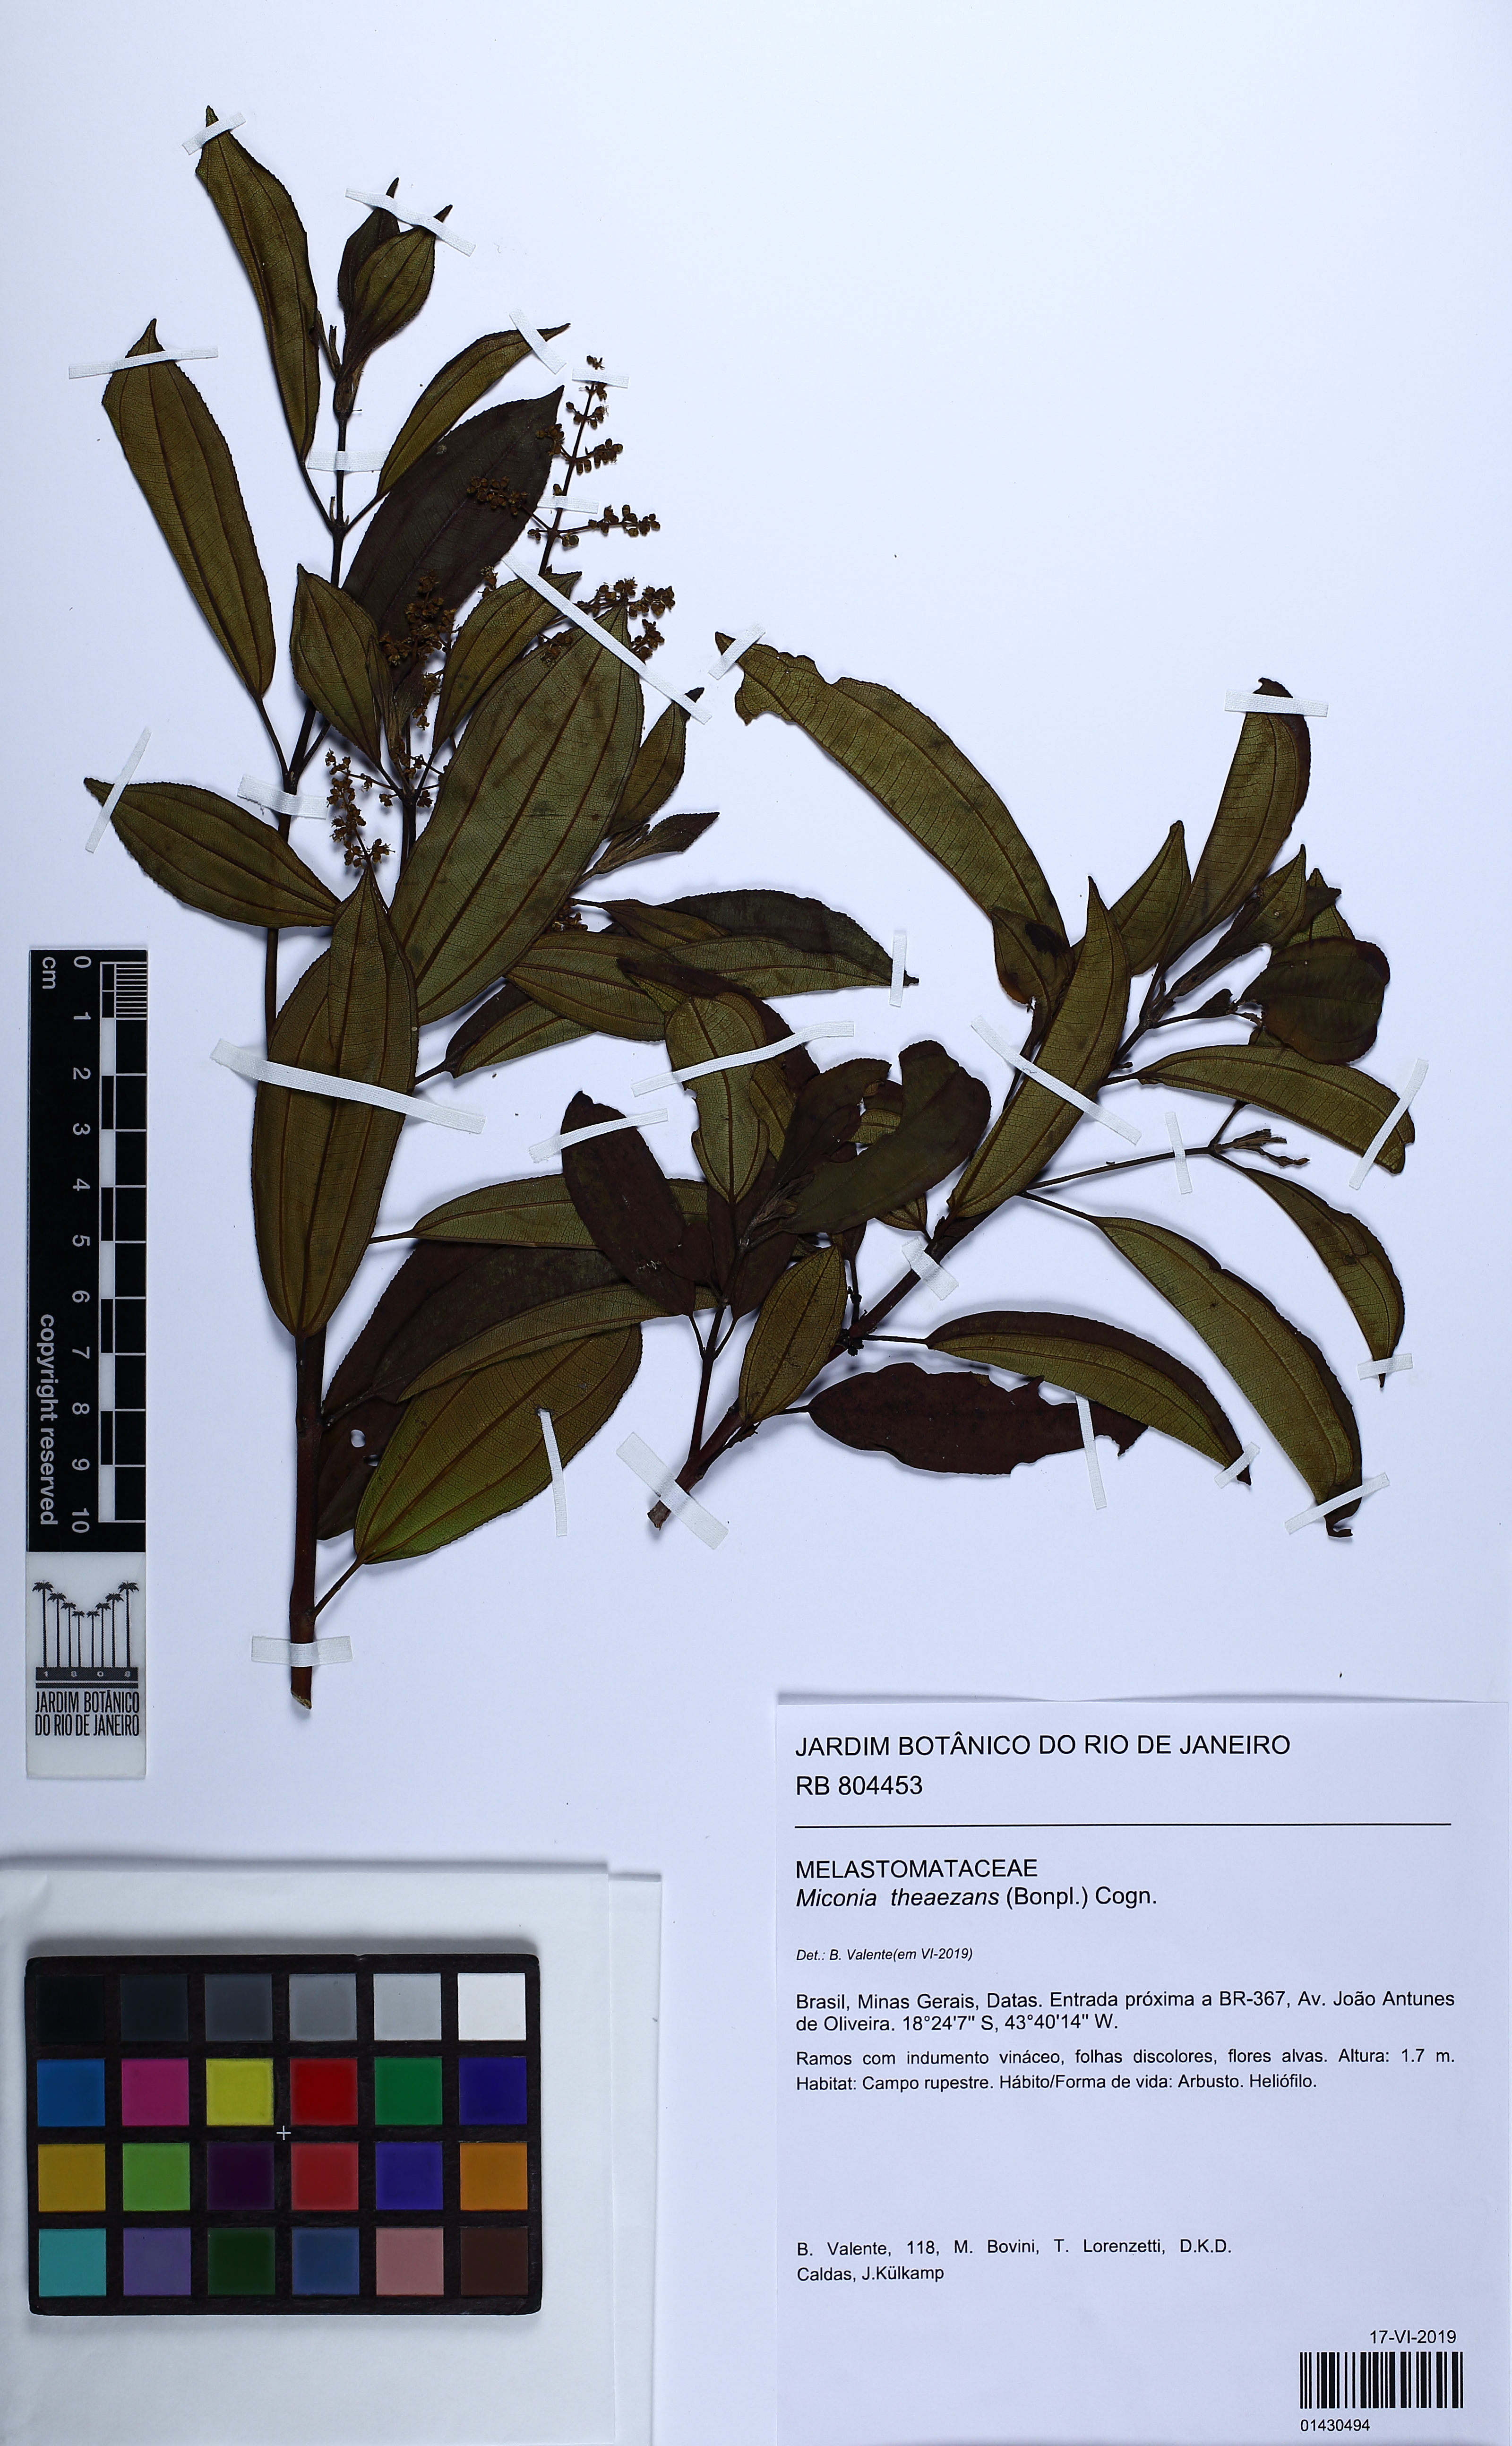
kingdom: Plantae
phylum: Tracheophyta
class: Magnoliopsida
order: Myrtales
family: Melastomataceae
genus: Miconia
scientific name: Miconia theizans
